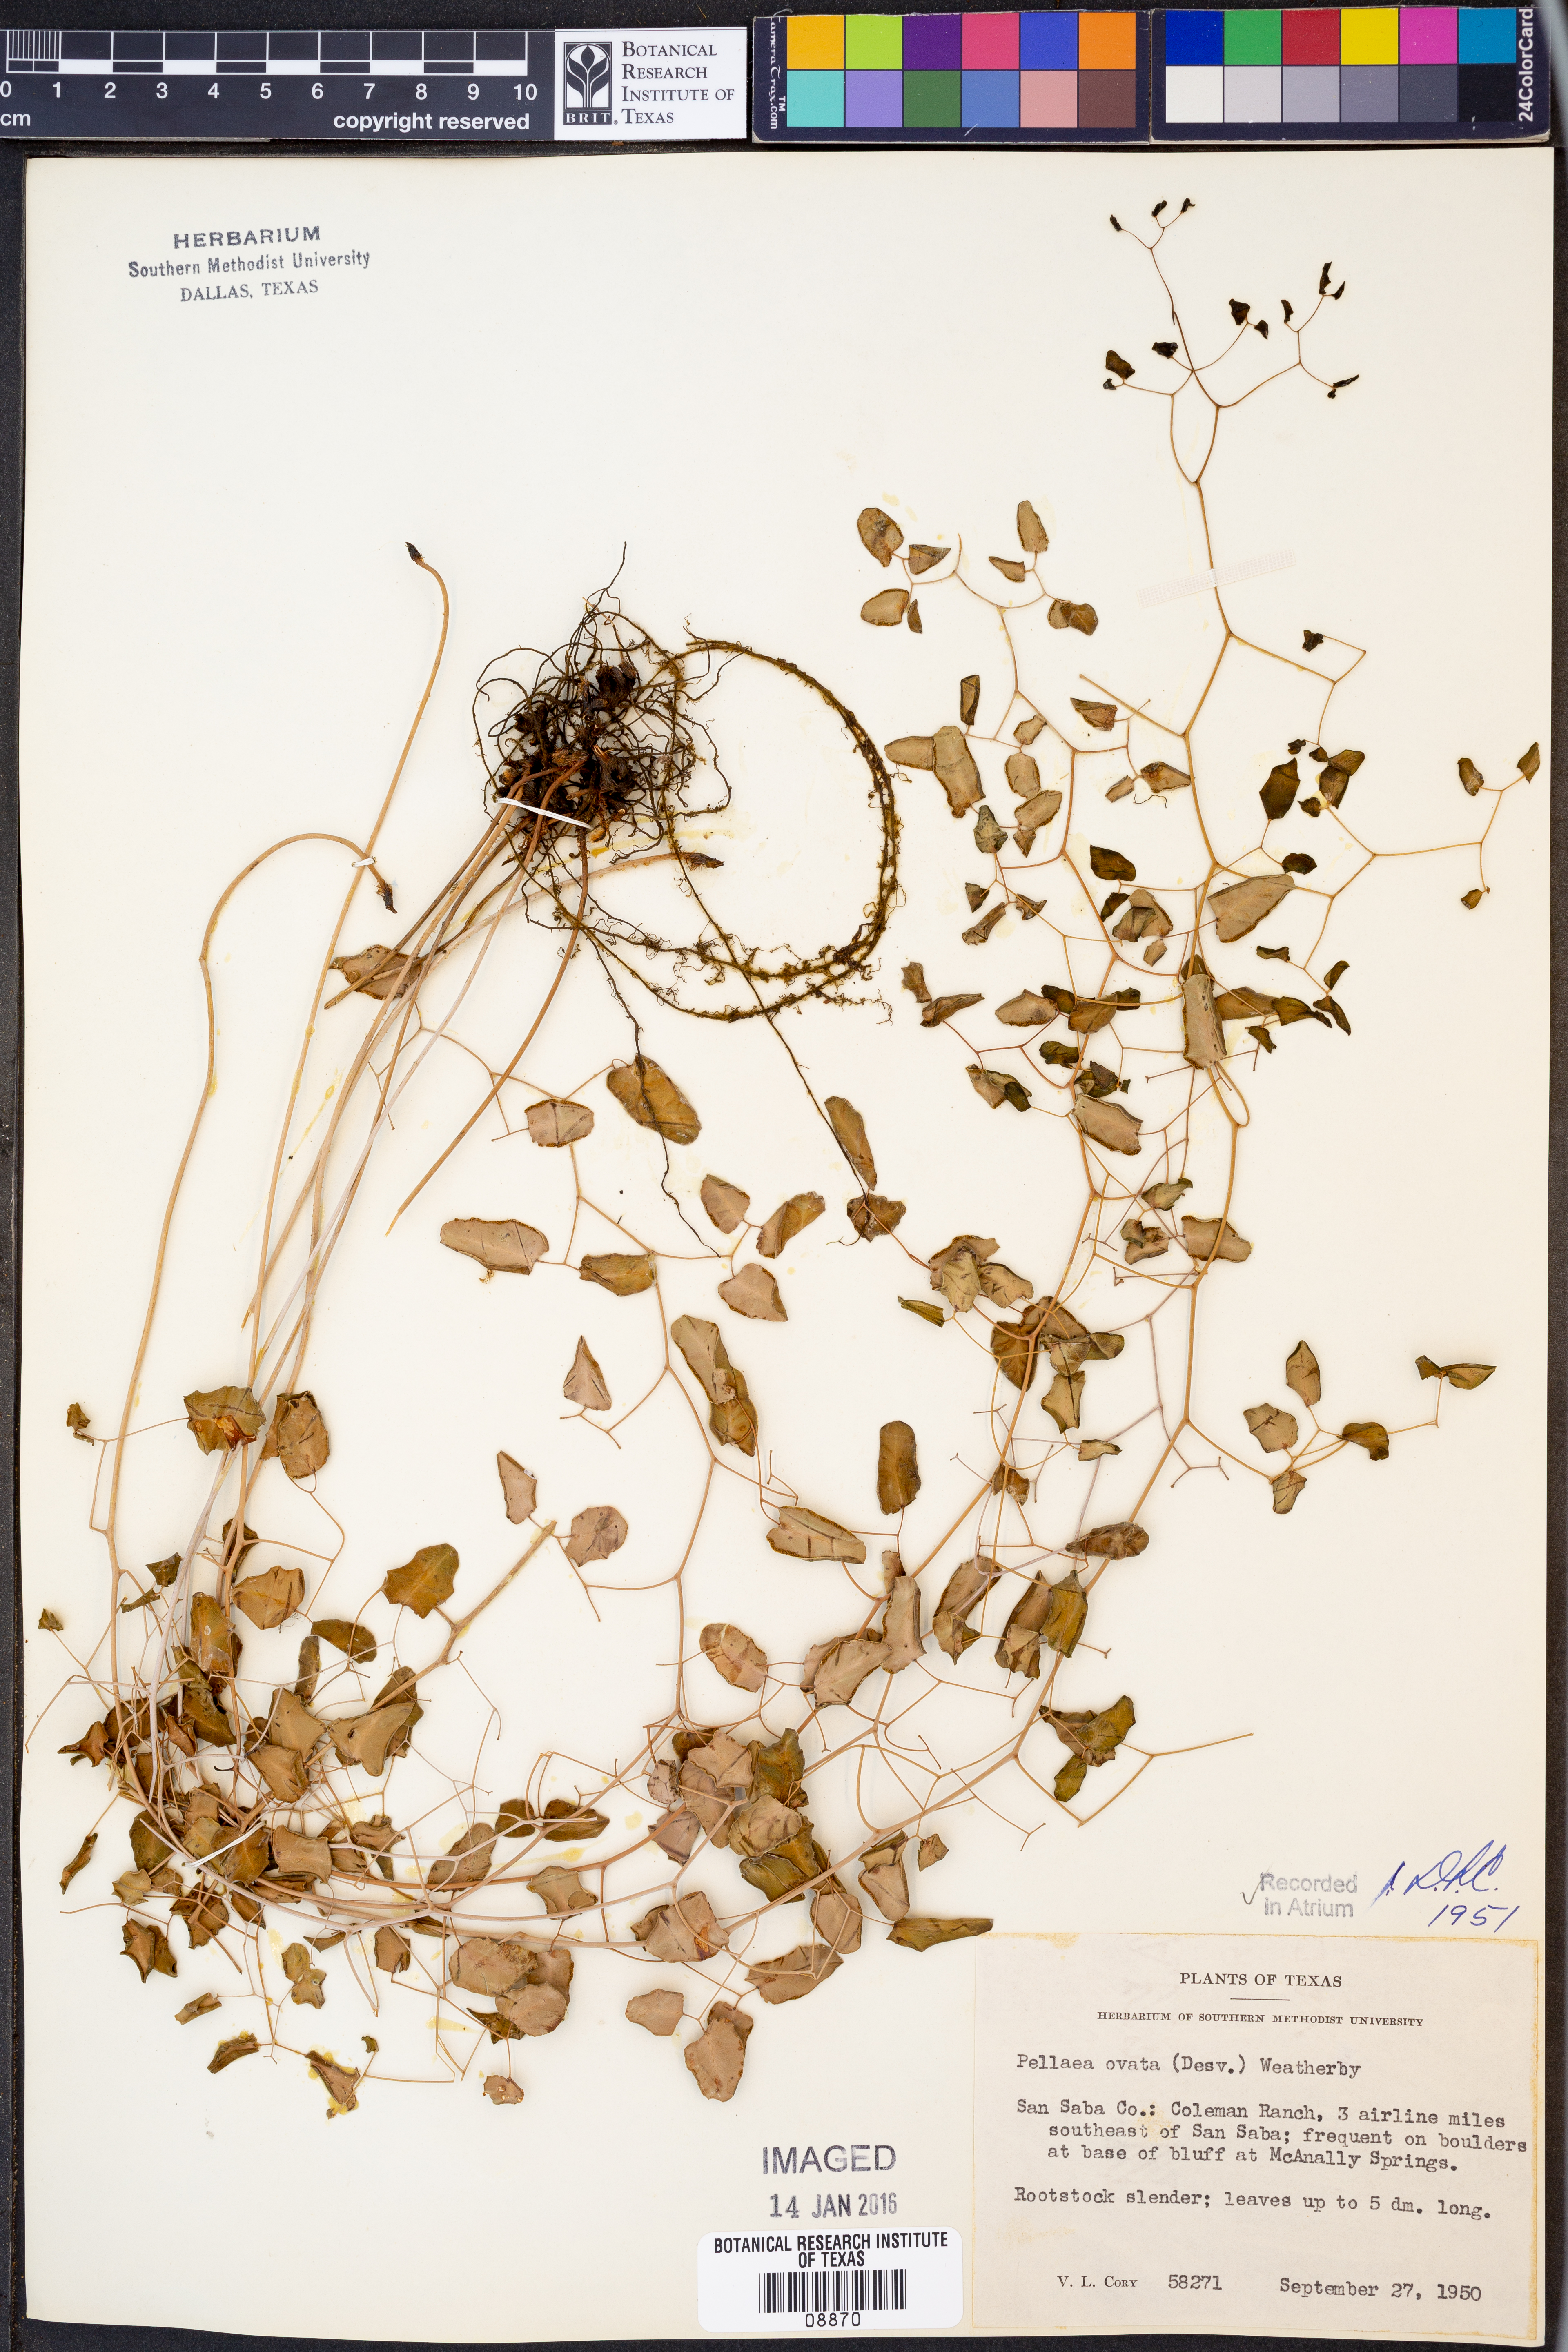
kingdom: Plantae
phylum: Tracheophyta
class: Polypodiopsida
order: Polypodiales
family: Pteridaceae
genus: Pellaea
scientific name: Pellaea ovata
